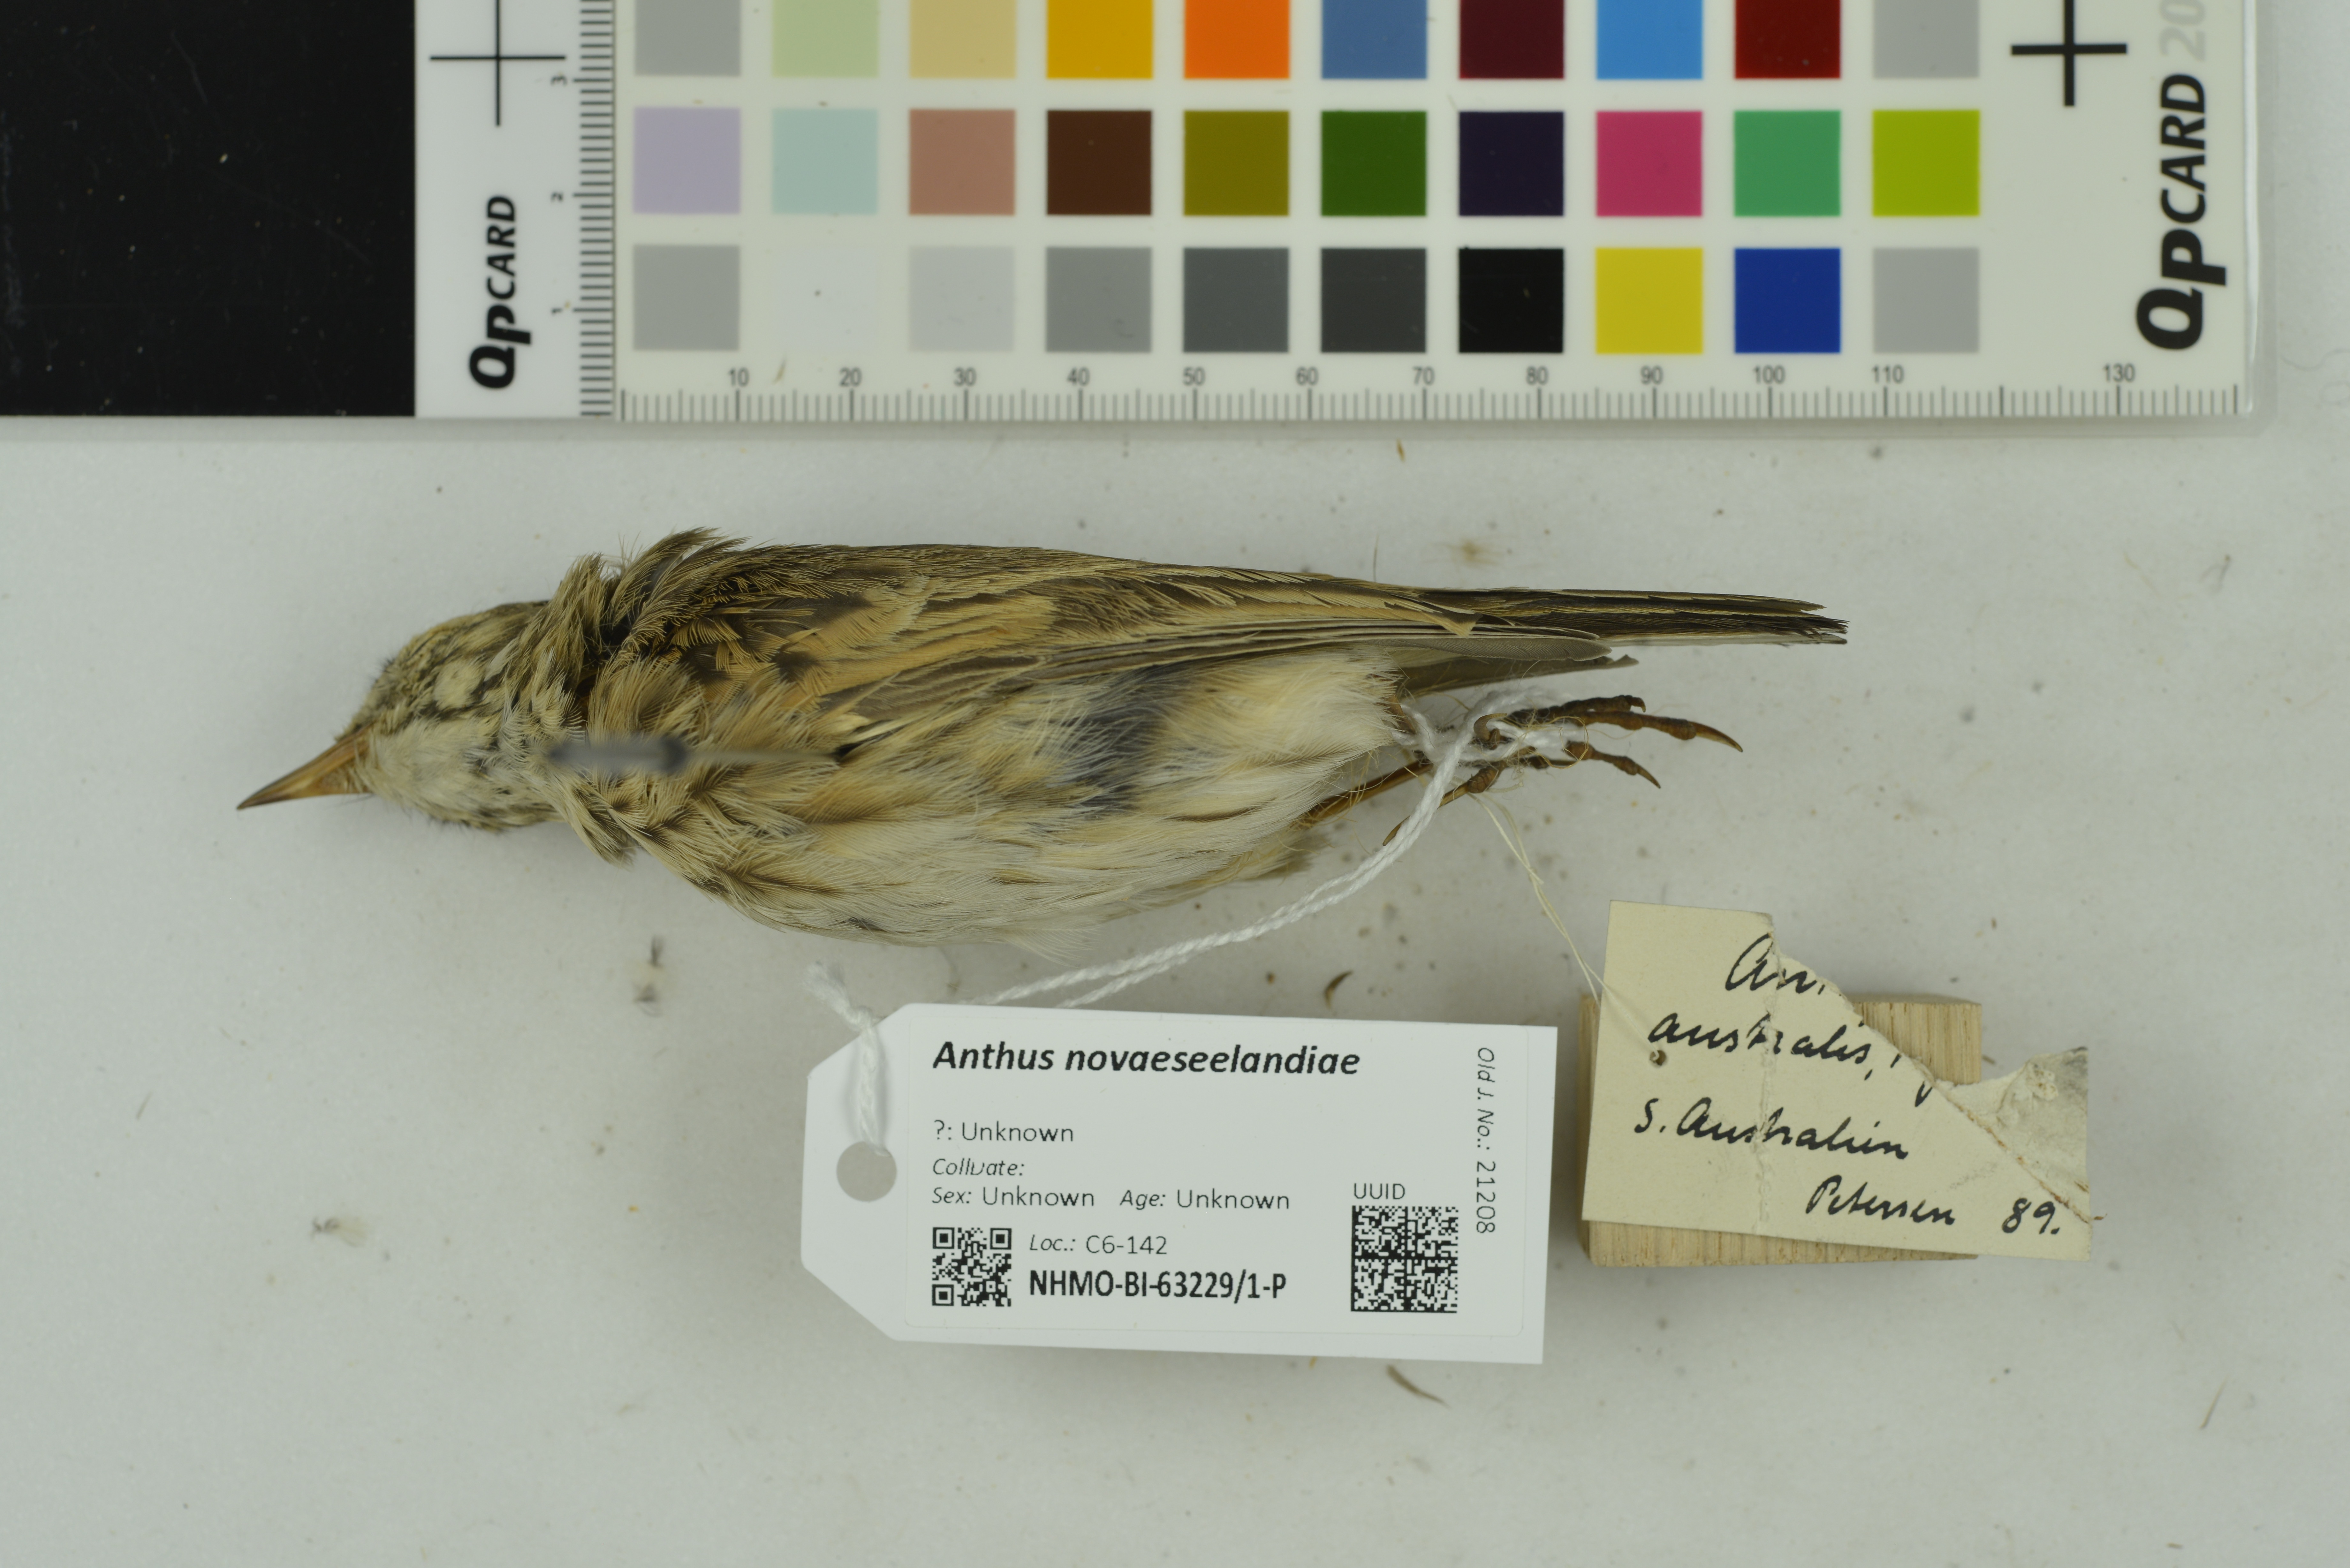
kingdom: Animalia
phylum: Chordata
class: Aves
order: Passeriformes
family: Motacillidae
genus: Anthus
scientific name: Anthus novaeseelandiae
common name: New zealand pipit
